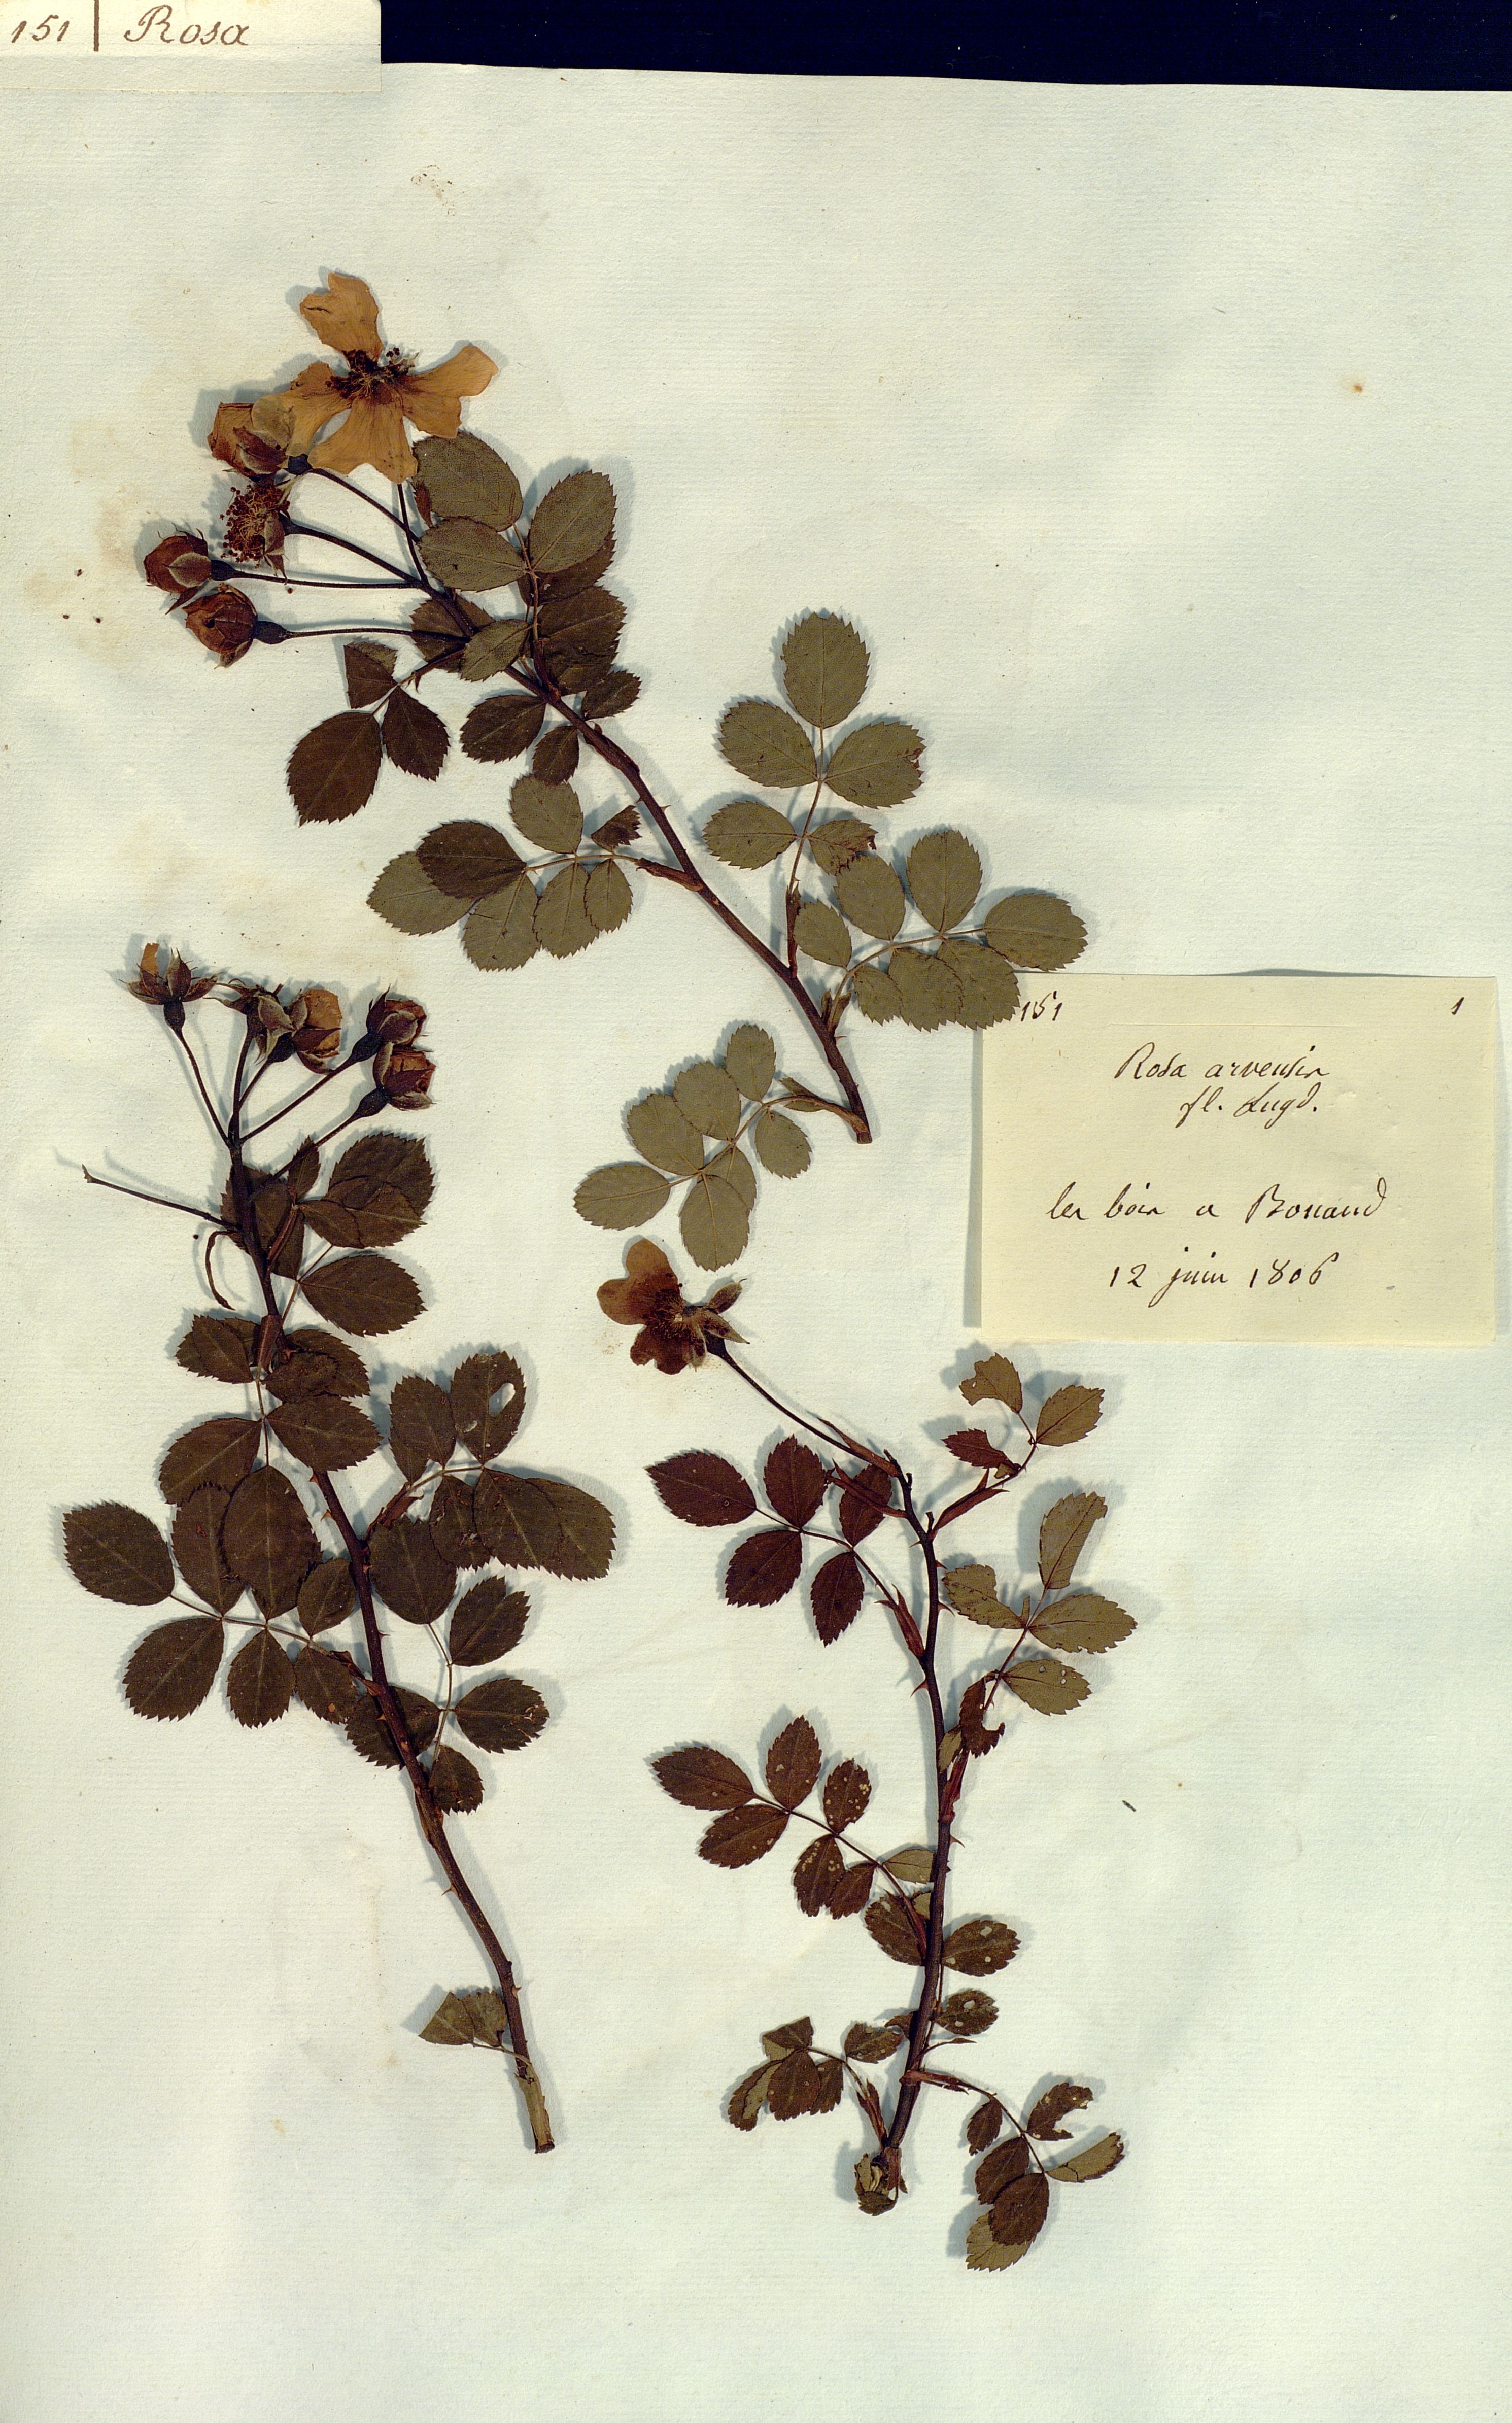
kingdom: Plantae
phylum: Tracheophyta
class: Magnoliopsida
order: Rosales
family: Rosaceae
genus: Rosa
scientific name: Rosa arvensis
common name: Field rose
